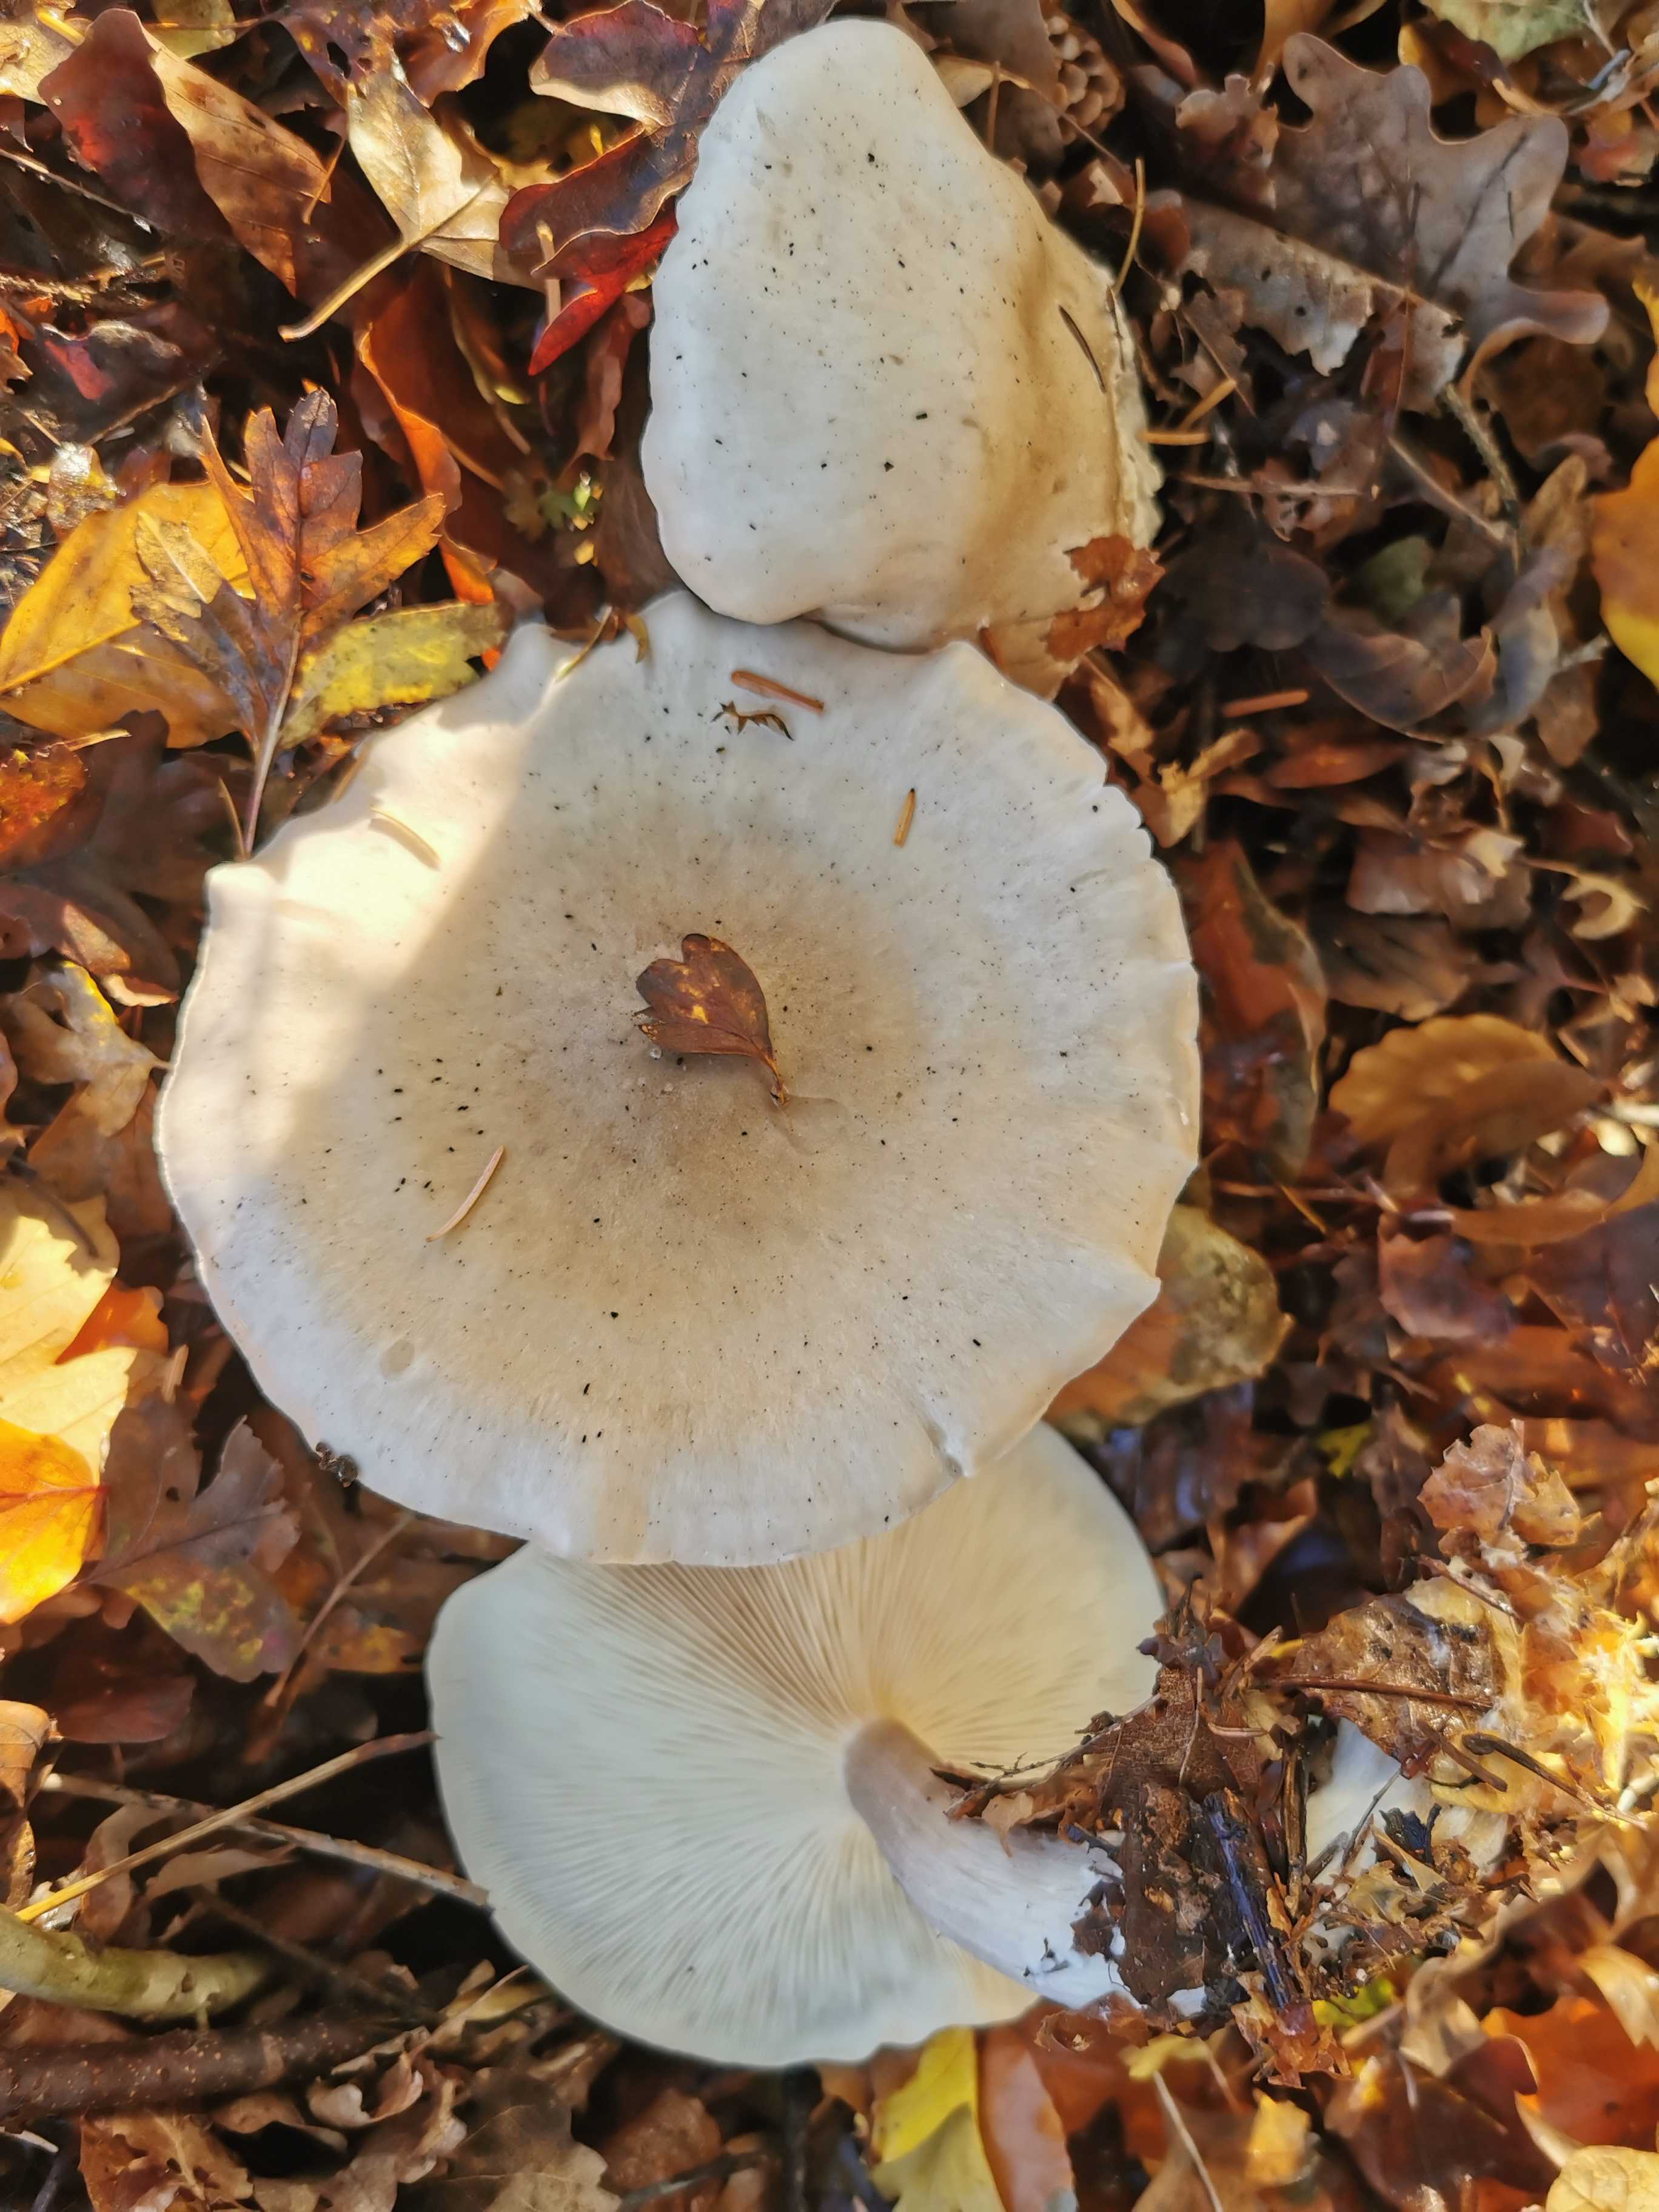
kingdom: Fungi
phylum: Basidiomycota
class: Agaricomycetes
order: Agaricales
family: Tricholomataceae
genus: Clitocybe
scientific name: Clitocybe nebularis
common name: tåge-tragthat
